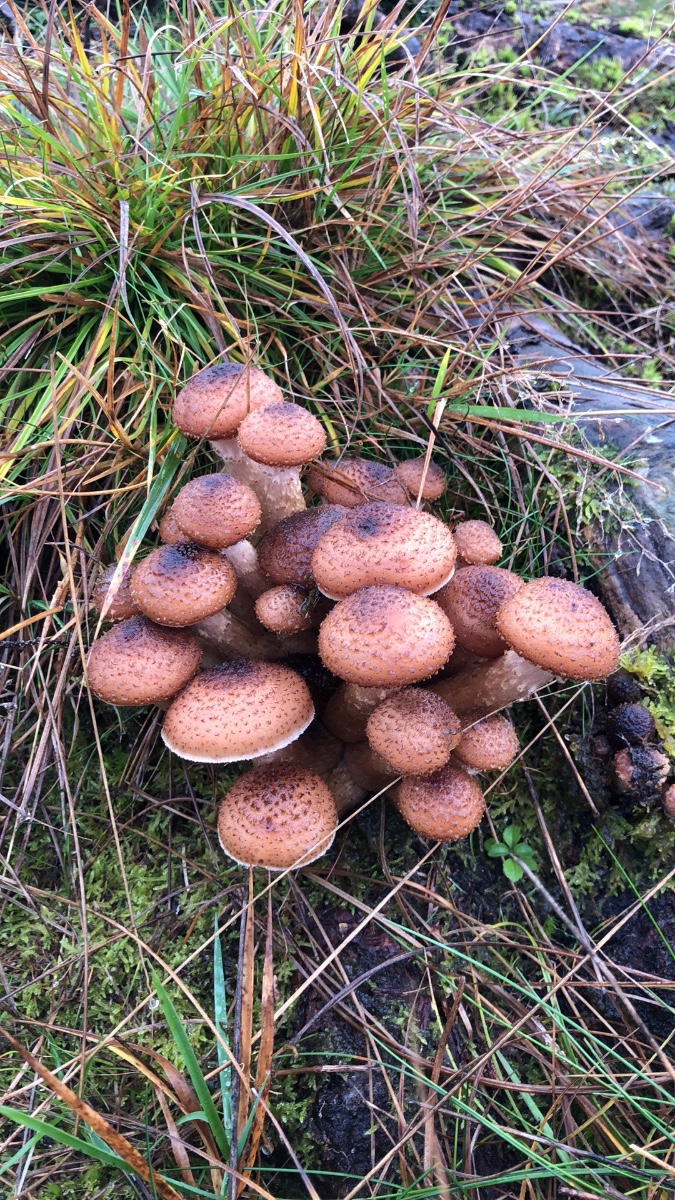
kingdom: Fungi
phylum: Basidiomycota
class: Agaricomycetes
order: Agaricales
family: Physalacriaceae
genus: Armillaria
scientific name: Armillaria ostoyae
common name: mørk honningsvamp
